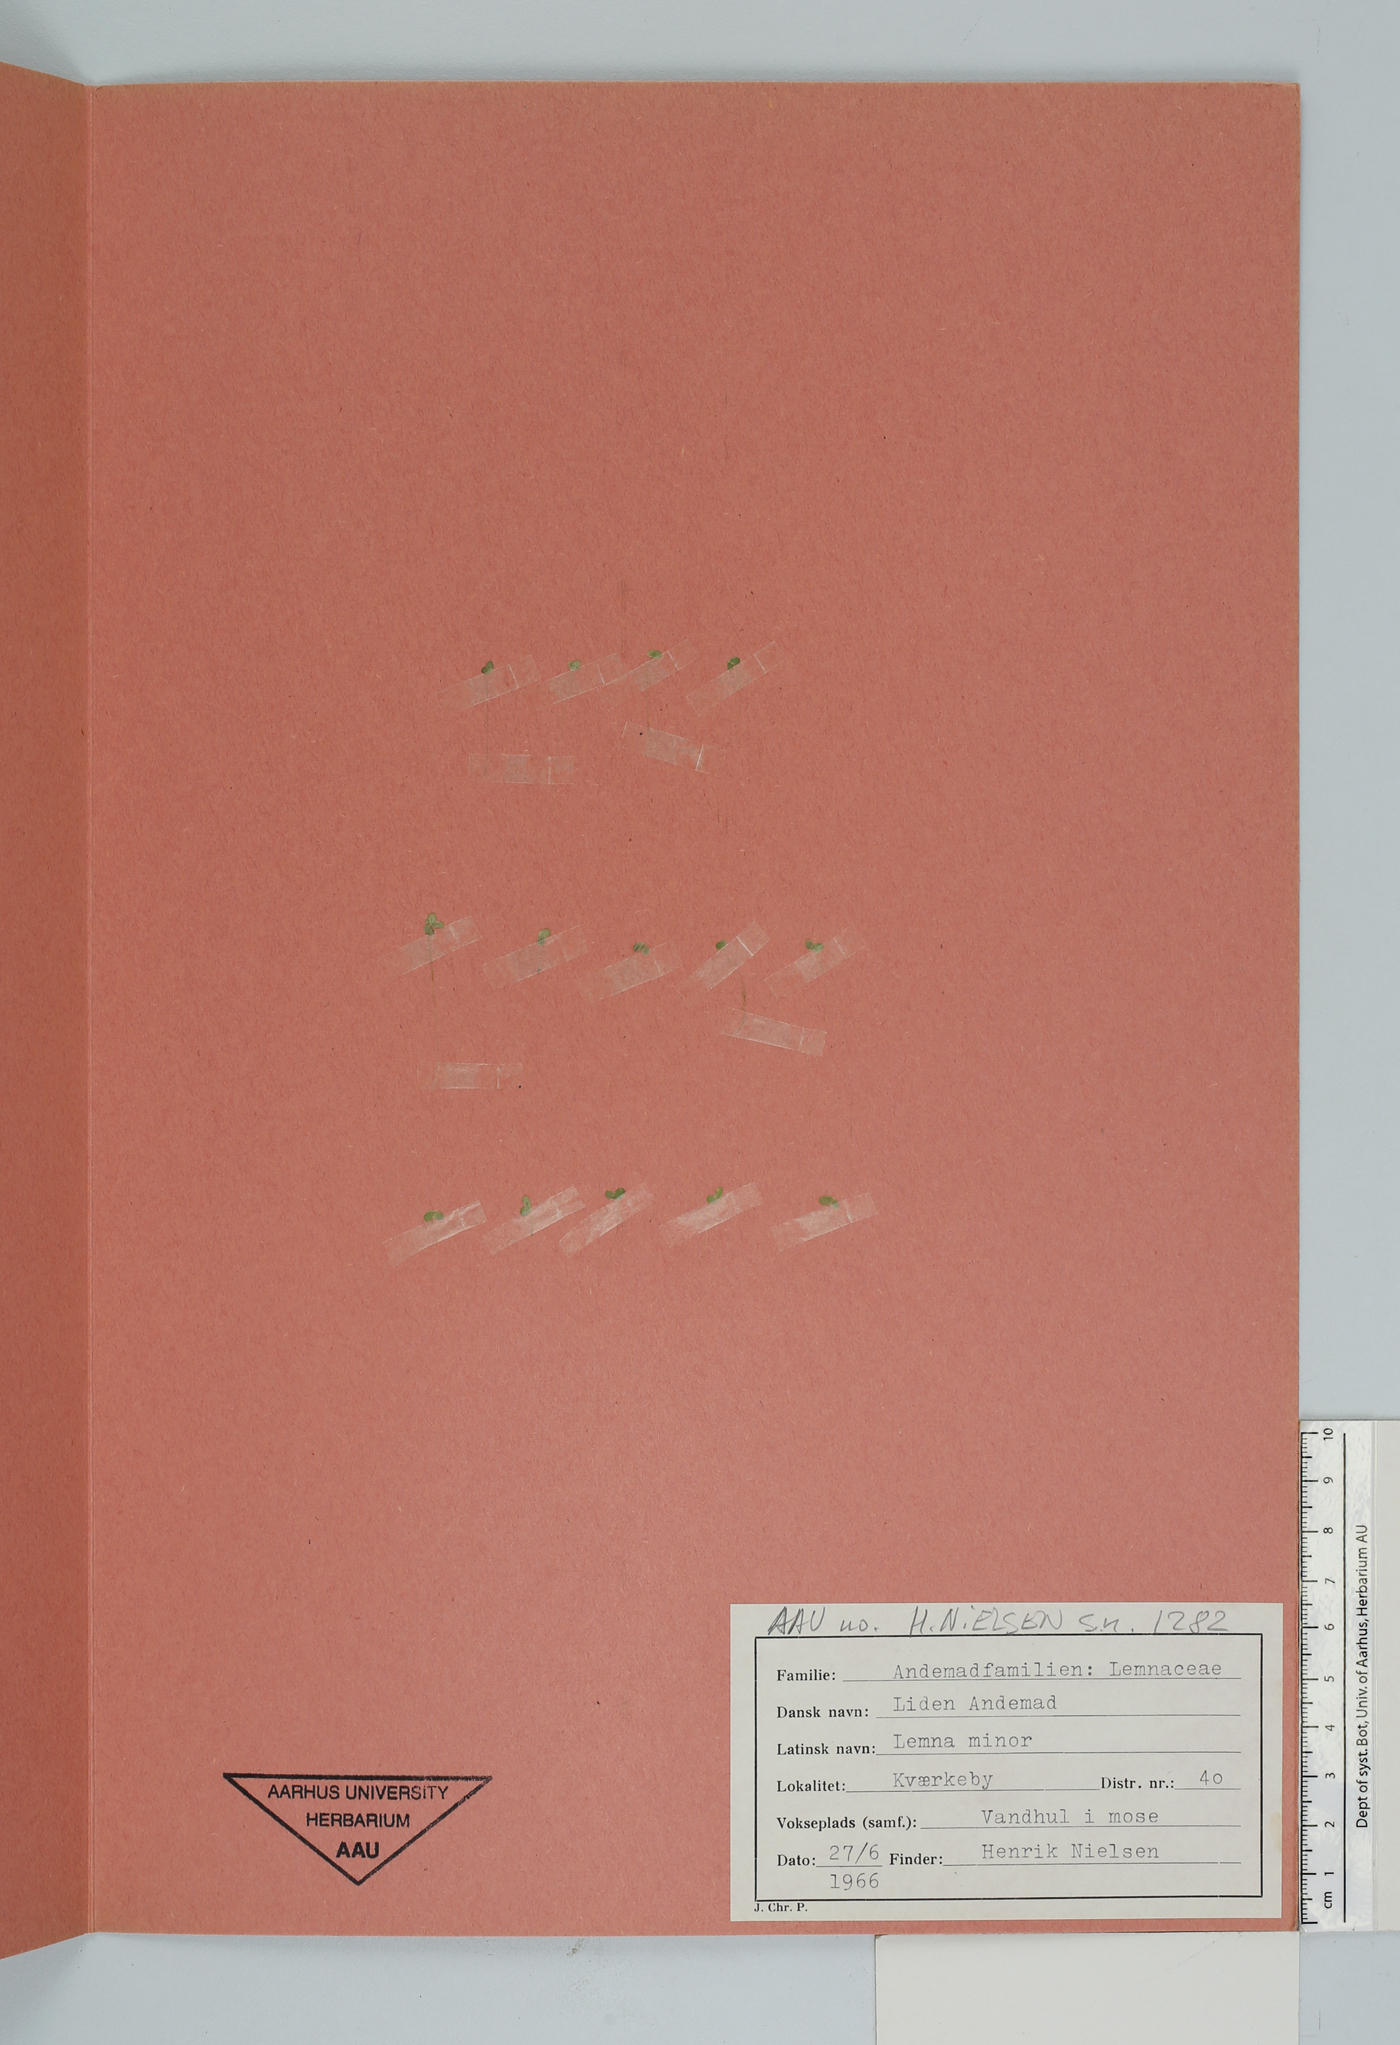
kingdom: Plantae
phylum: Tracheophyta
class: Liliopsida
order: Alismatales
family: Araceae
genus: Lemna
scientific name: Lemna minor
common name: Common duckweed
